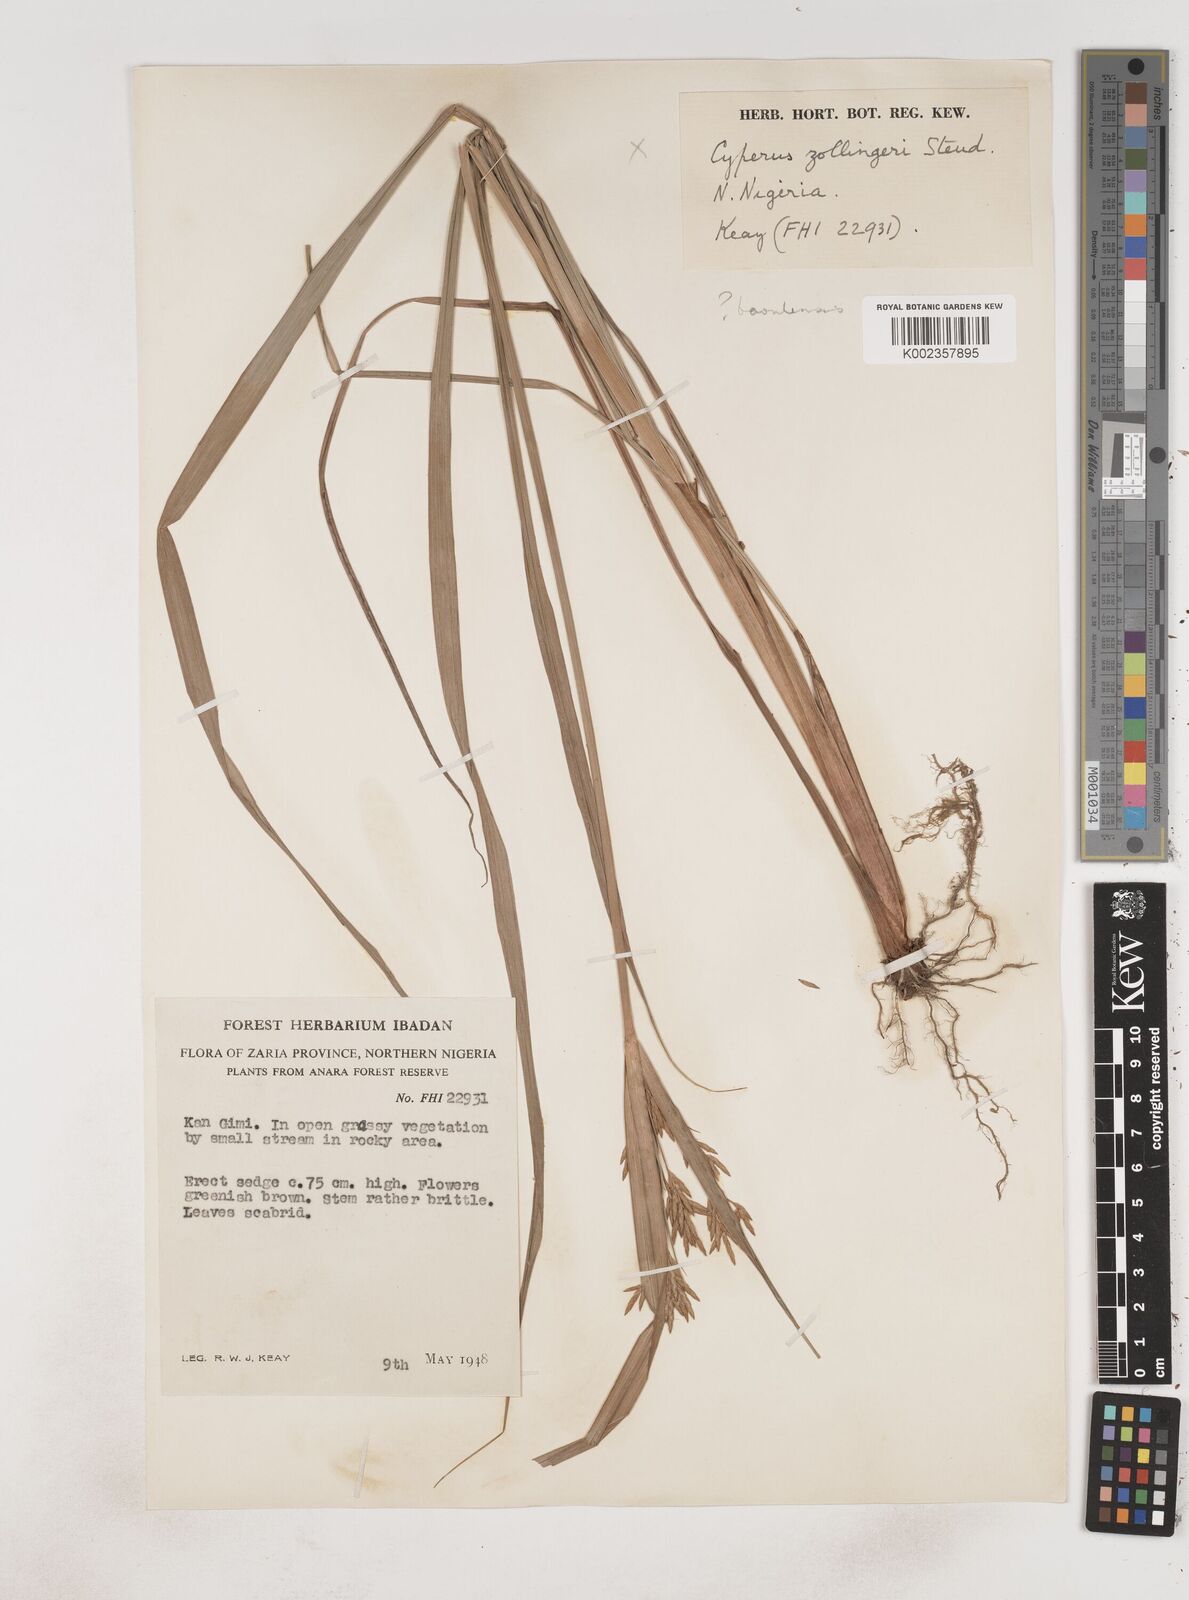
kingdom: Plantae
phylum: Tracheophyta
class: Liliopsida
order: Poales
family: Cyperaceae
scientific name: Cyperaceae
